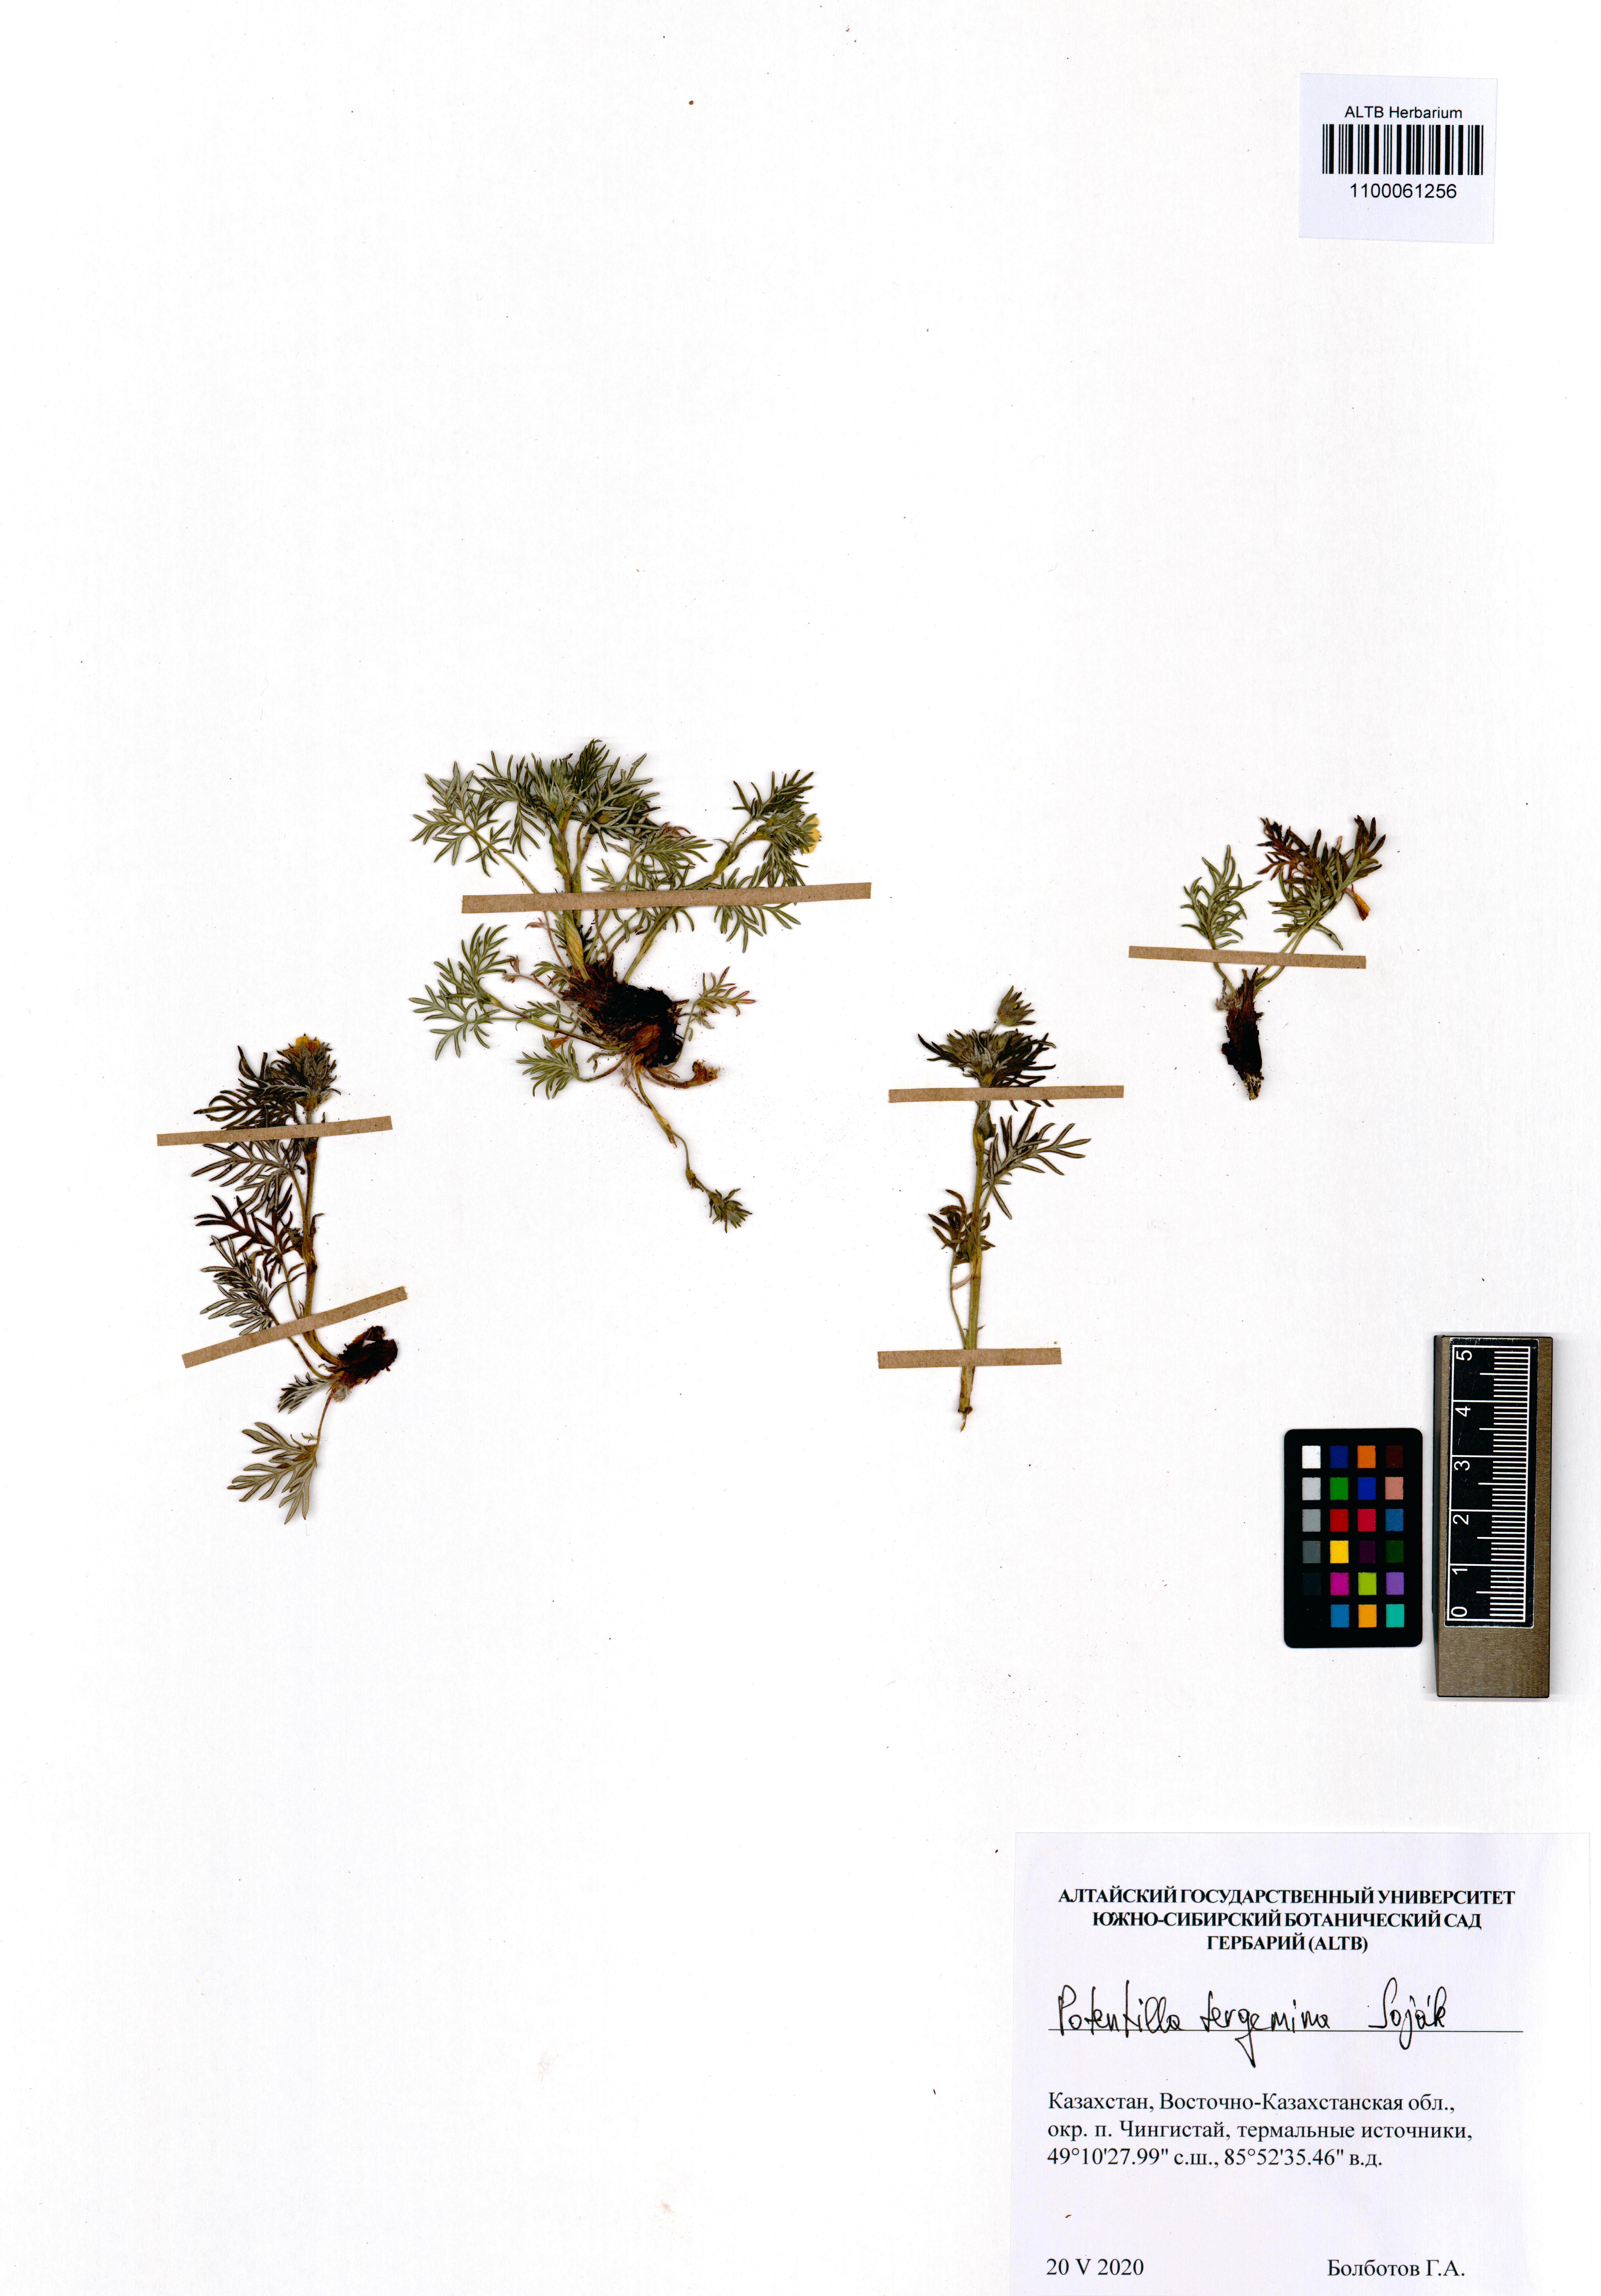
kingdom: Plantae
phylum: Tracheophyta
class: Magnoliopsida
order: Rosales
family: Rosaceae
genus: Potentilla
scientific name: Potentilla tergemina
